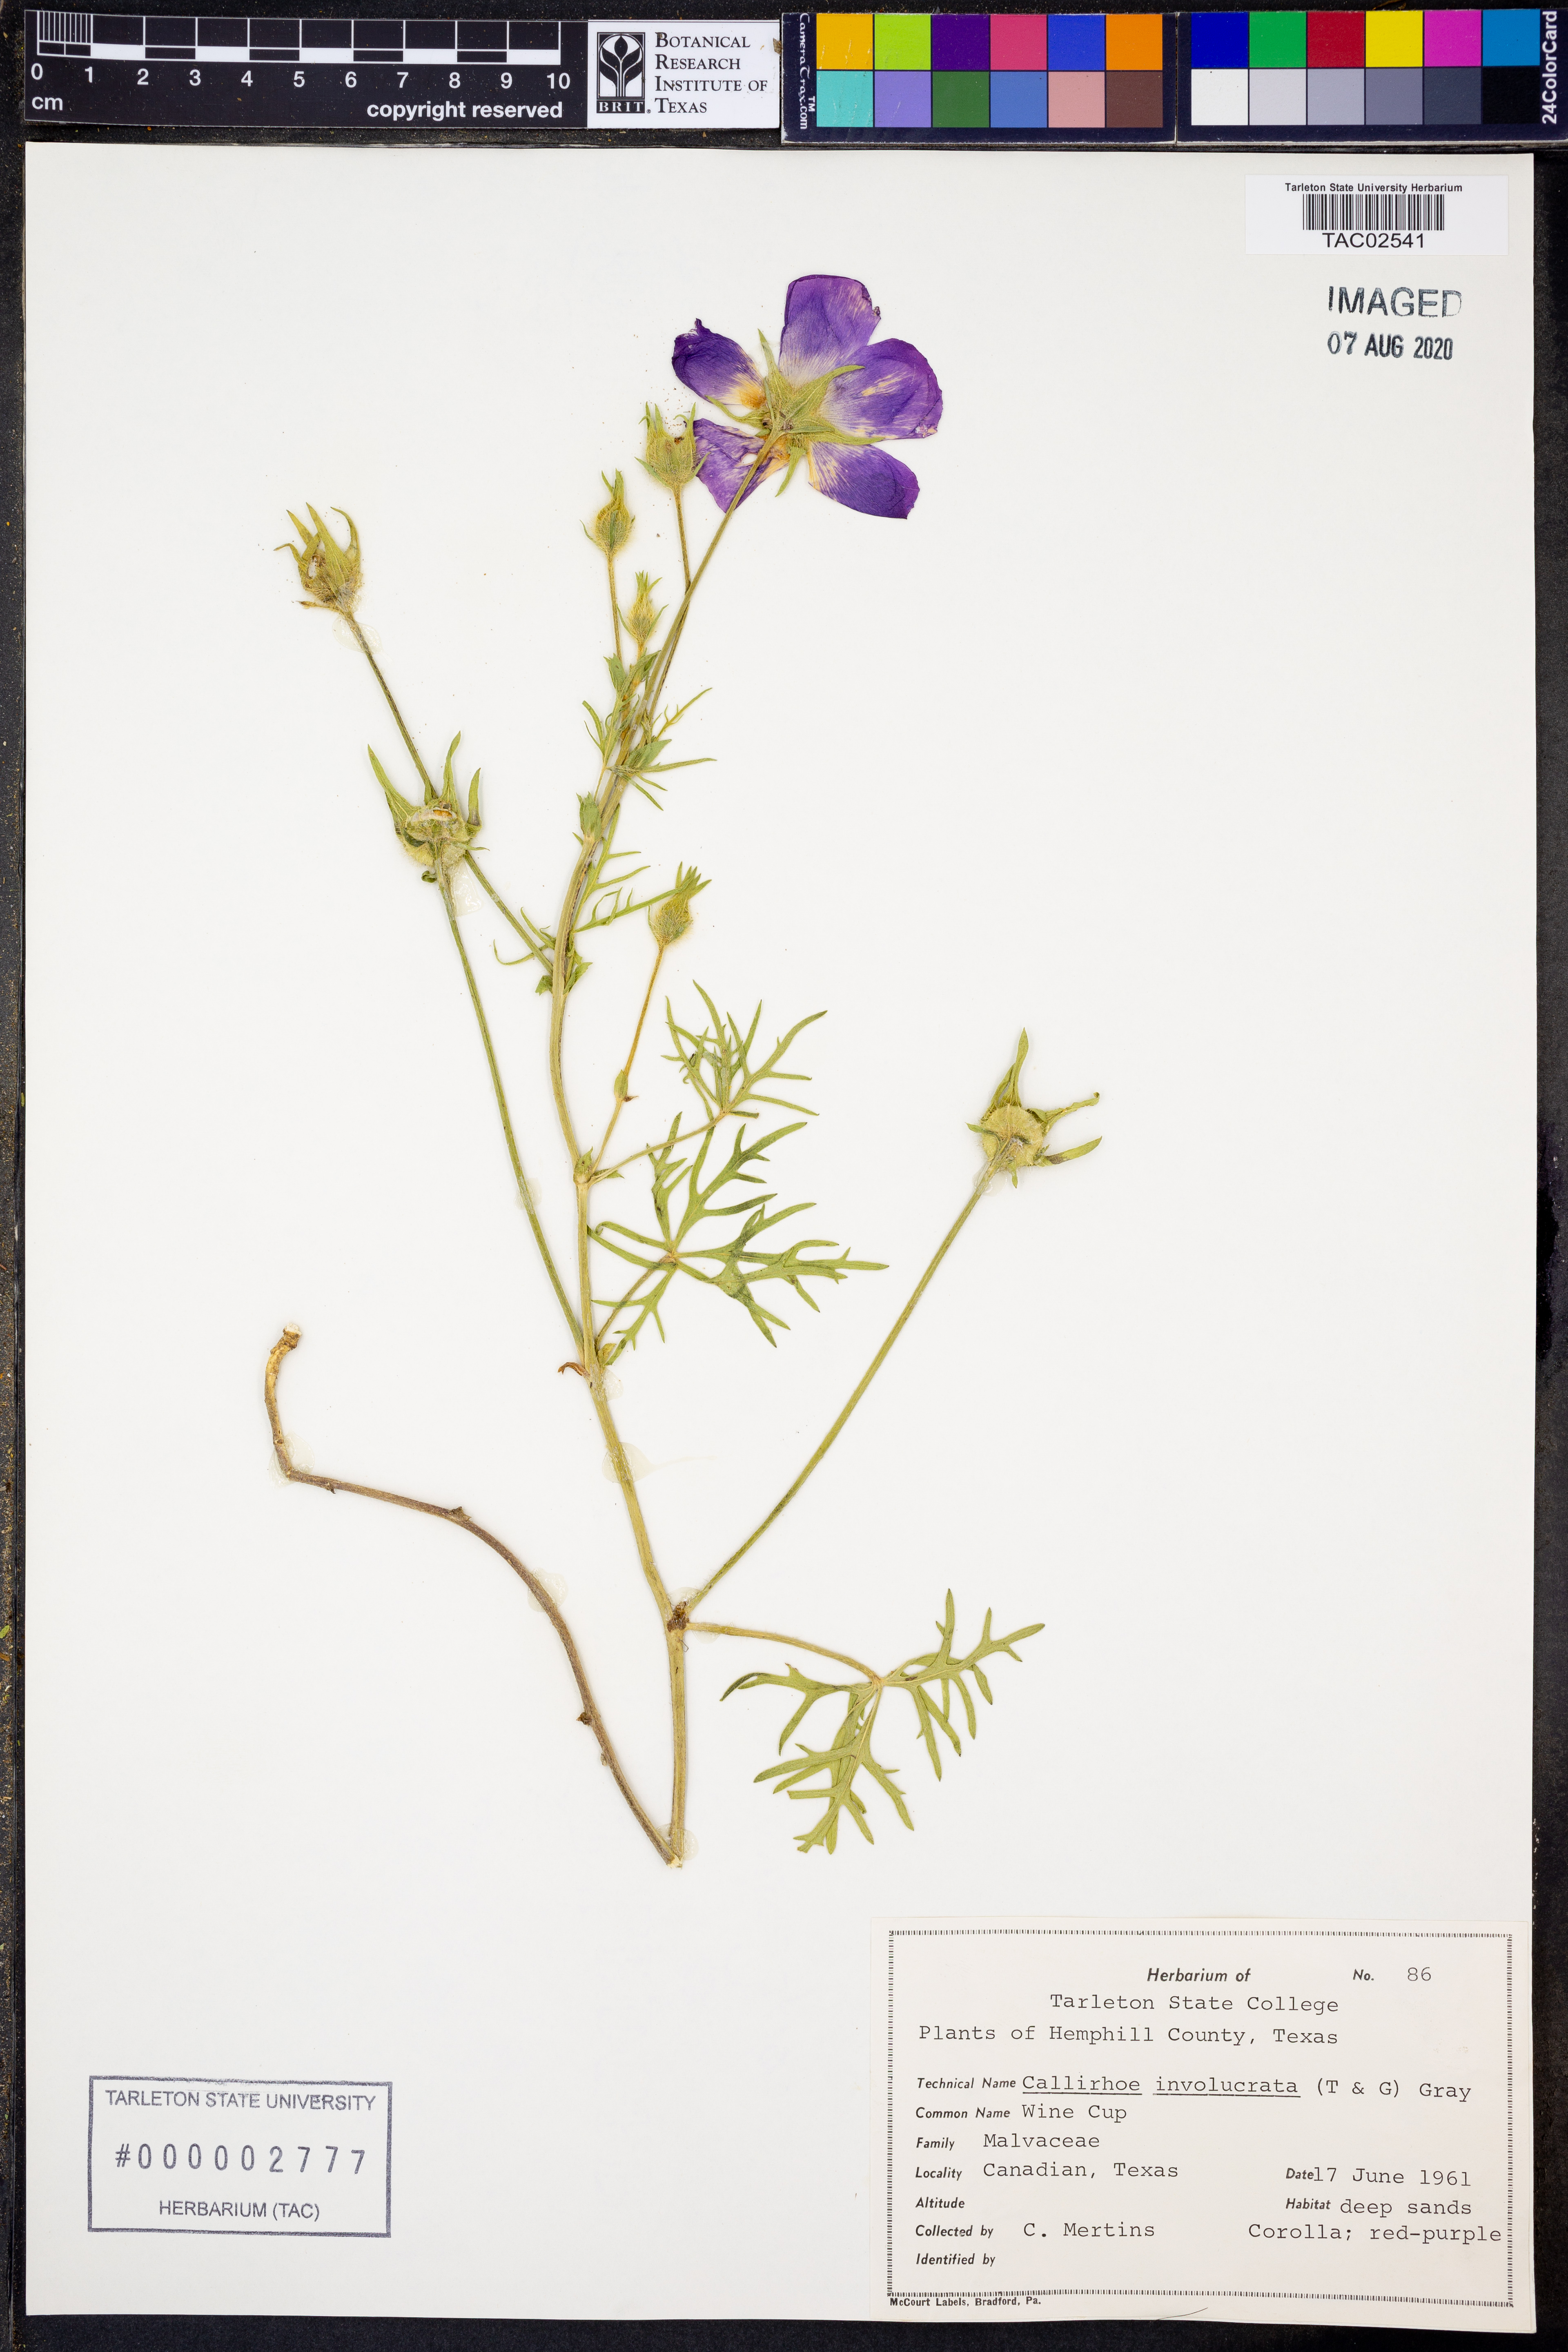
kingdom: Plantae
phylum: Tracheophyta
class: Magnoliopsida
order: Malvales
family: Malvaceae
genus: Callirhoe
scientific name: Callirhoe involucrata
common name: Purple poppy-mallow
